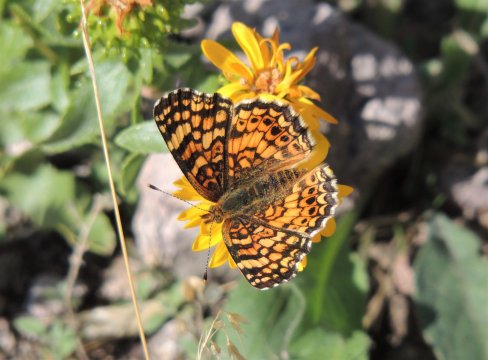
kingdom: Animalia
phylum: Arthropoda
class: Insecta
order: Lepidoptera
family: Nymphalidae
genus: Eresia
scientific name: Eresia aveyrona
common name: Mylitta Crescent
